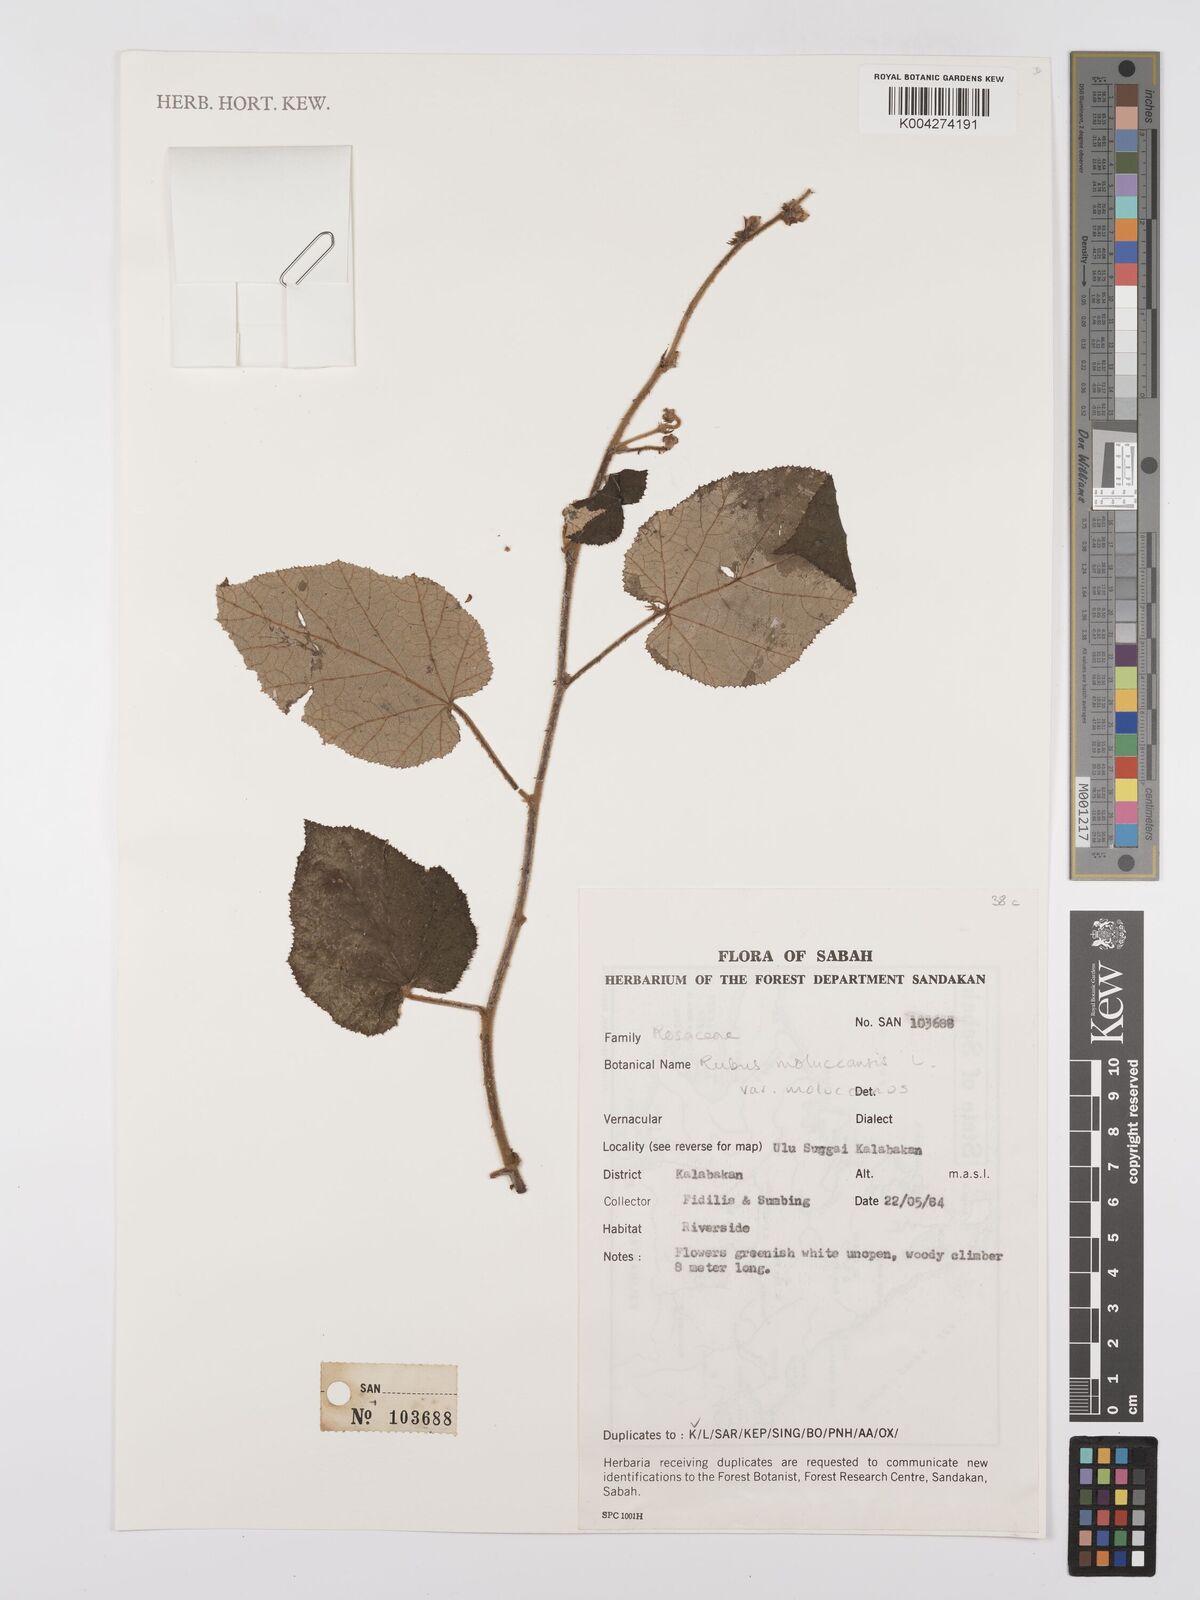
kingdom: Plantae
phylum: Tracheophyta
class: Magnoliopsida
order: Rosales
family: Rosaceae
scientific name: Rosaceae
